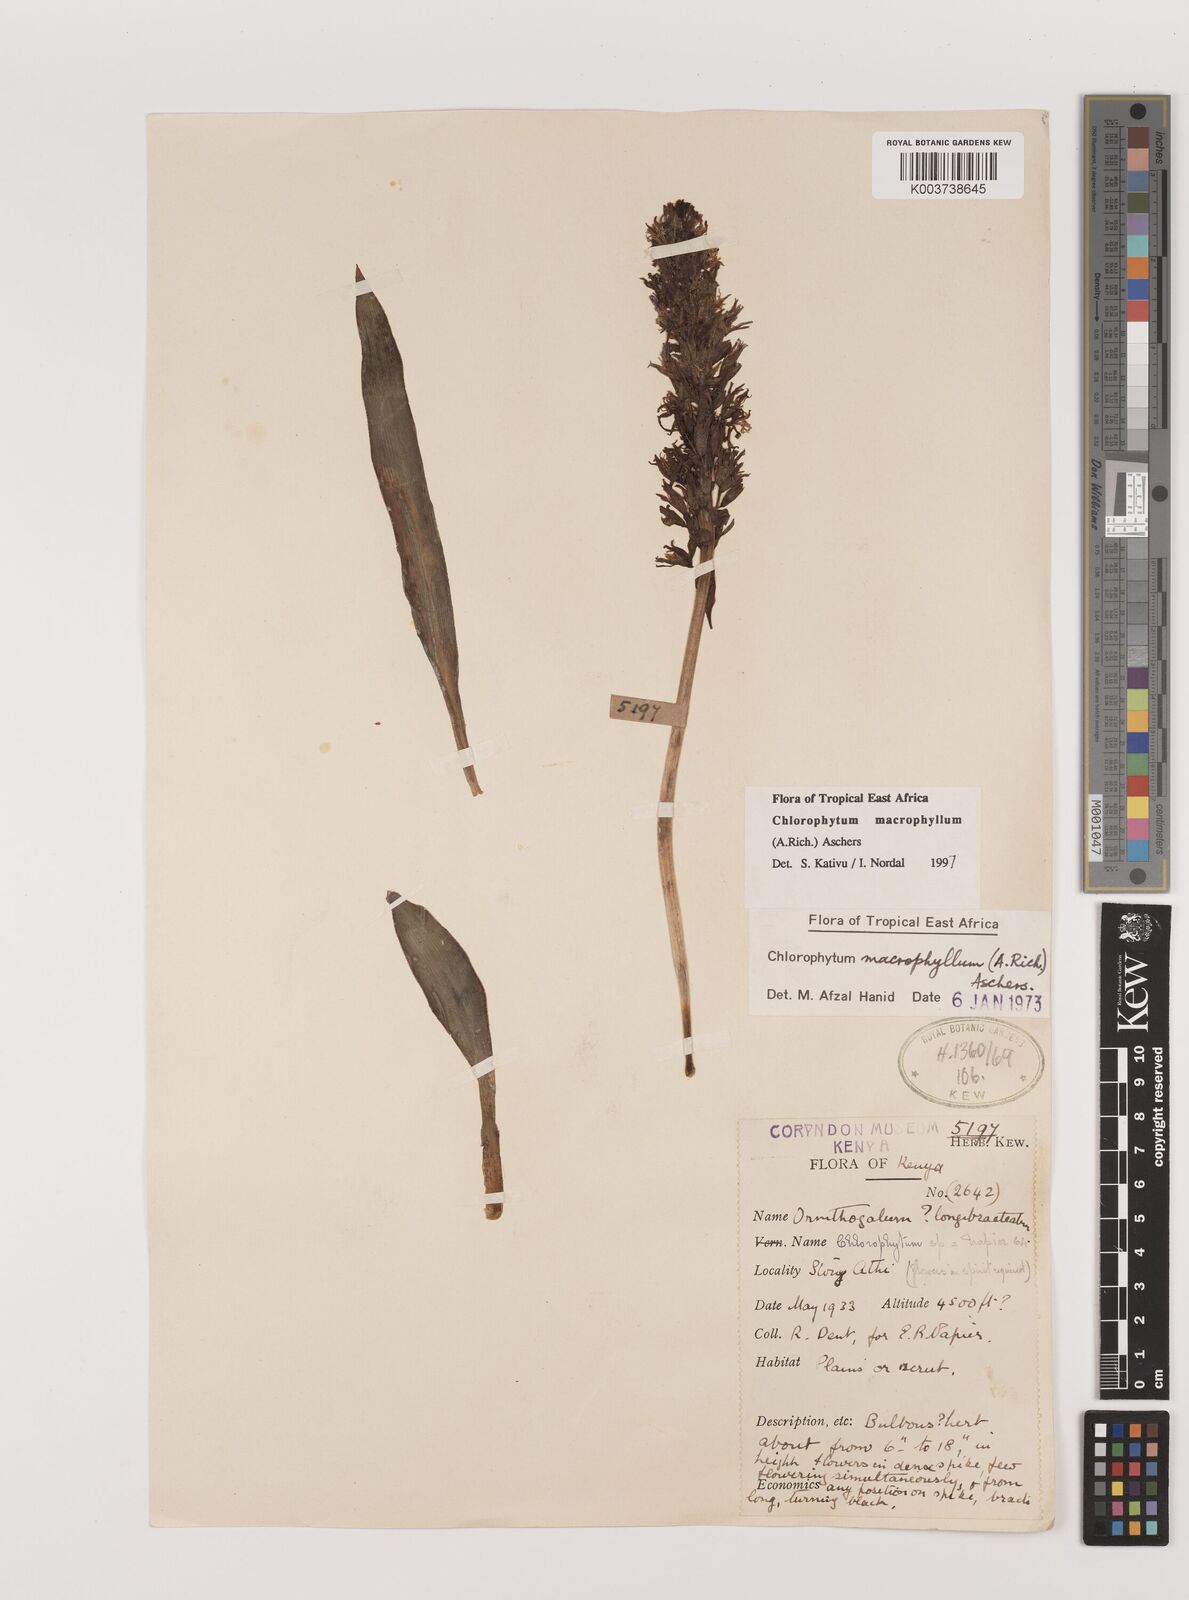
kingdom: Plantae
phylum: Tracheophyta
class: Liliopsida
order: Asparagales
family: Asparagaceae
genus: Chlorophytum
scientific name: Chlorophytum macrophyllum
